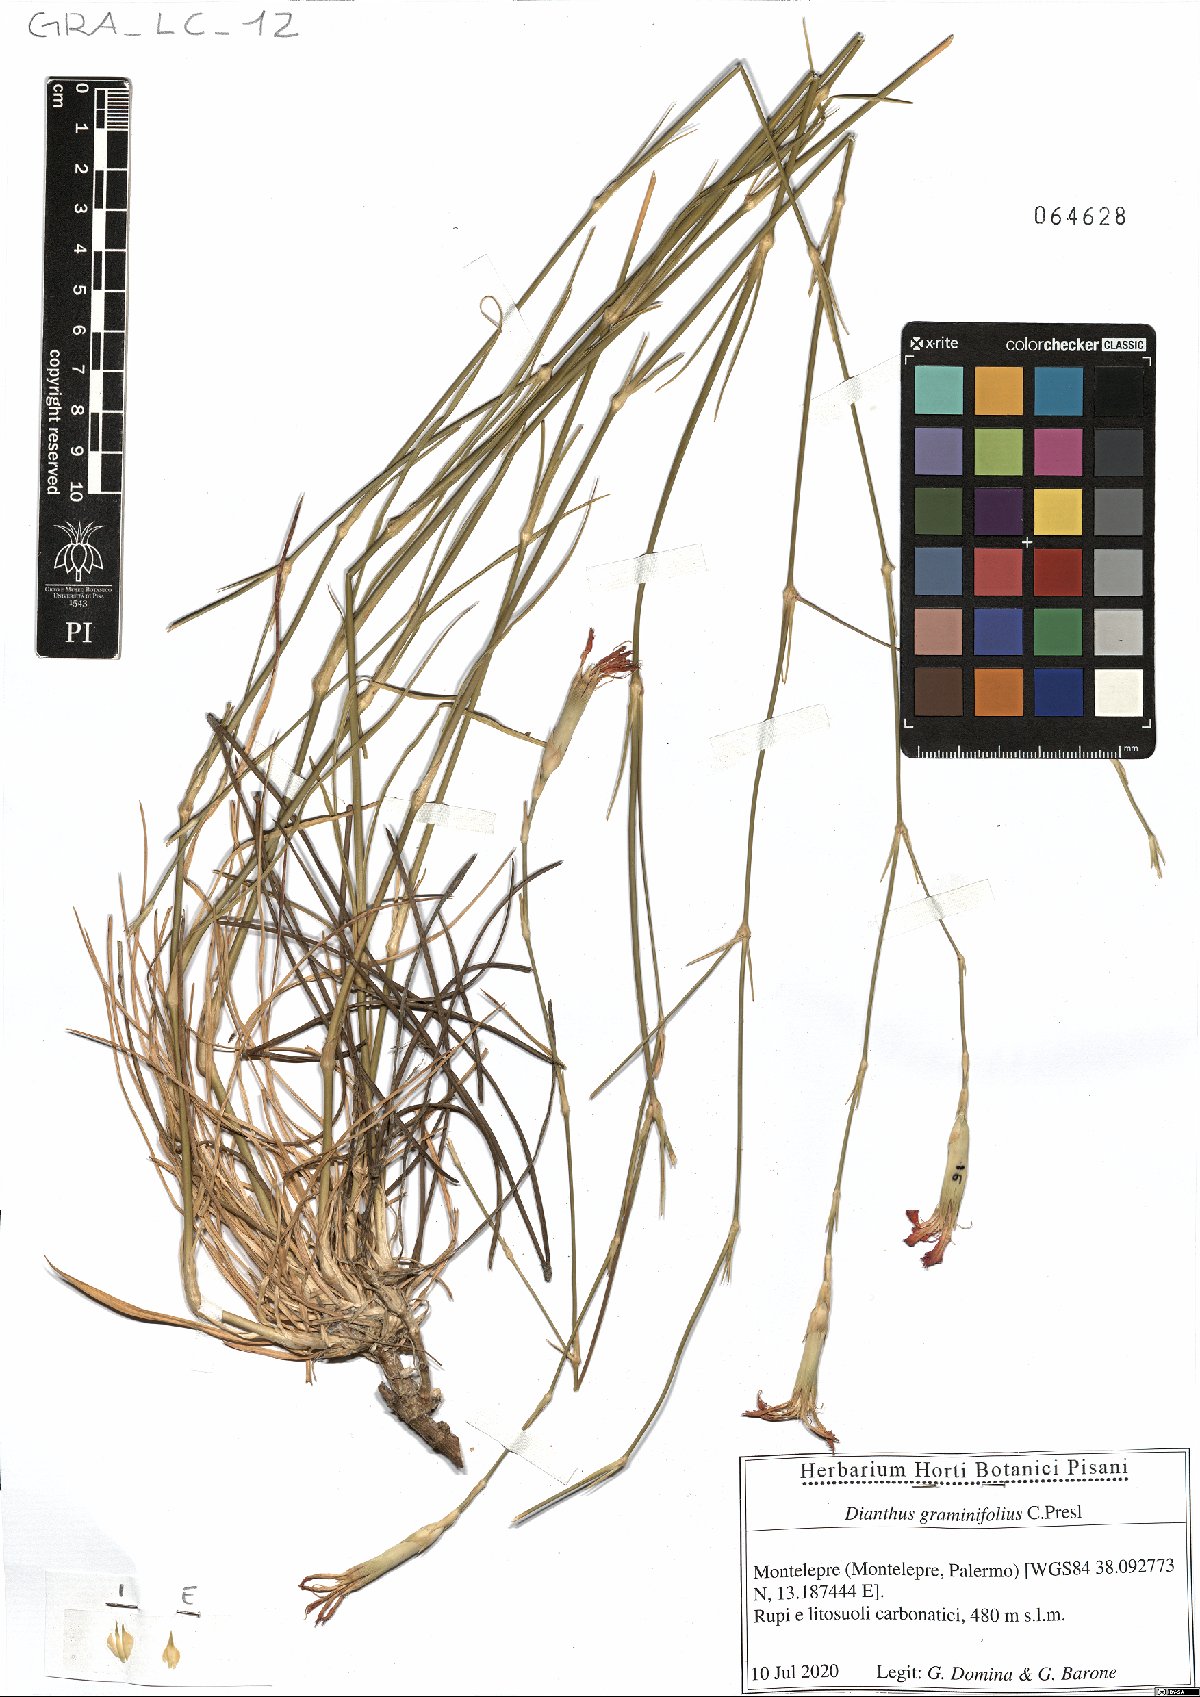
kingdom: Plantae
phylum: Tracheophyta
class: Magnoliopsida
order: Caryophyllales
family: Caryophyllaceae
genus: Dianthus
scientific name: Dianthus graminifolius
